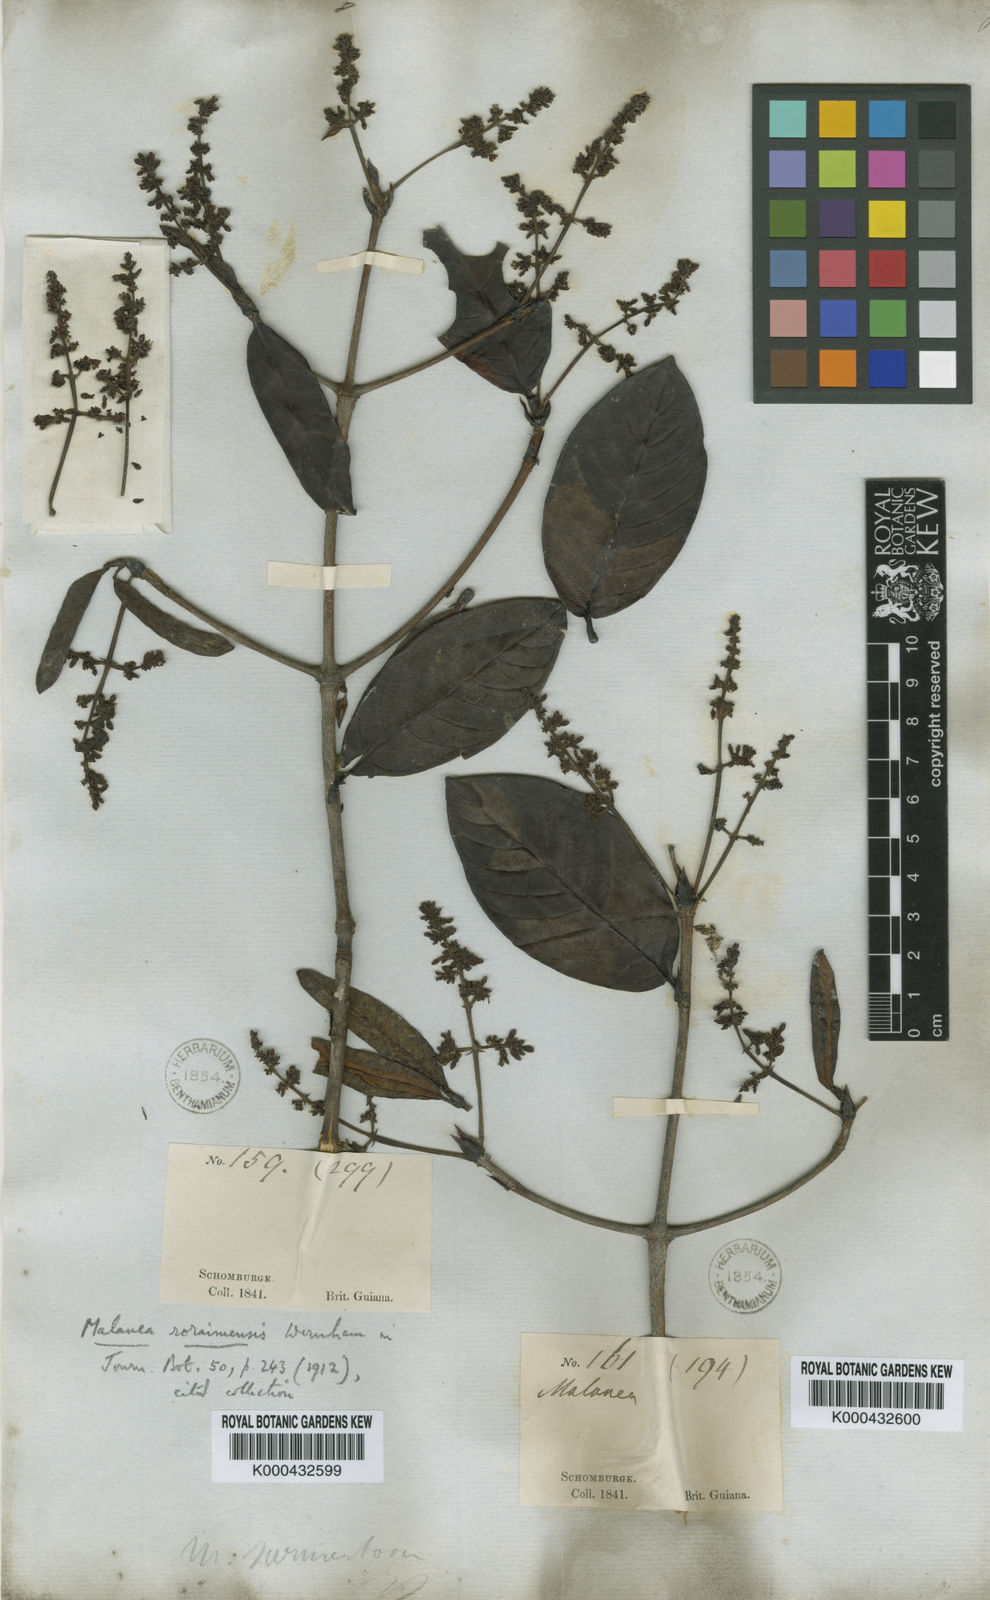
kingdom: Plantae
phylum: Tracheophyta
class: Magnoliopsida
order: Gentianales
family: Rubiaceae
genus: Malanea
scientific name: Malanea obovata
